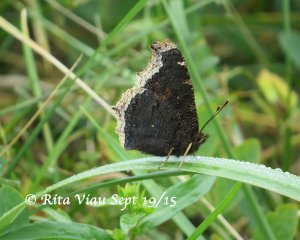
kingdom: Animalia
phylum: Arthropoda
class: Insecta
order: Lepidoptera
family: Nymphalidae
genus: Nymphalis
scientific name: Nymphalis antiopa
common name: Mourning Cloak
